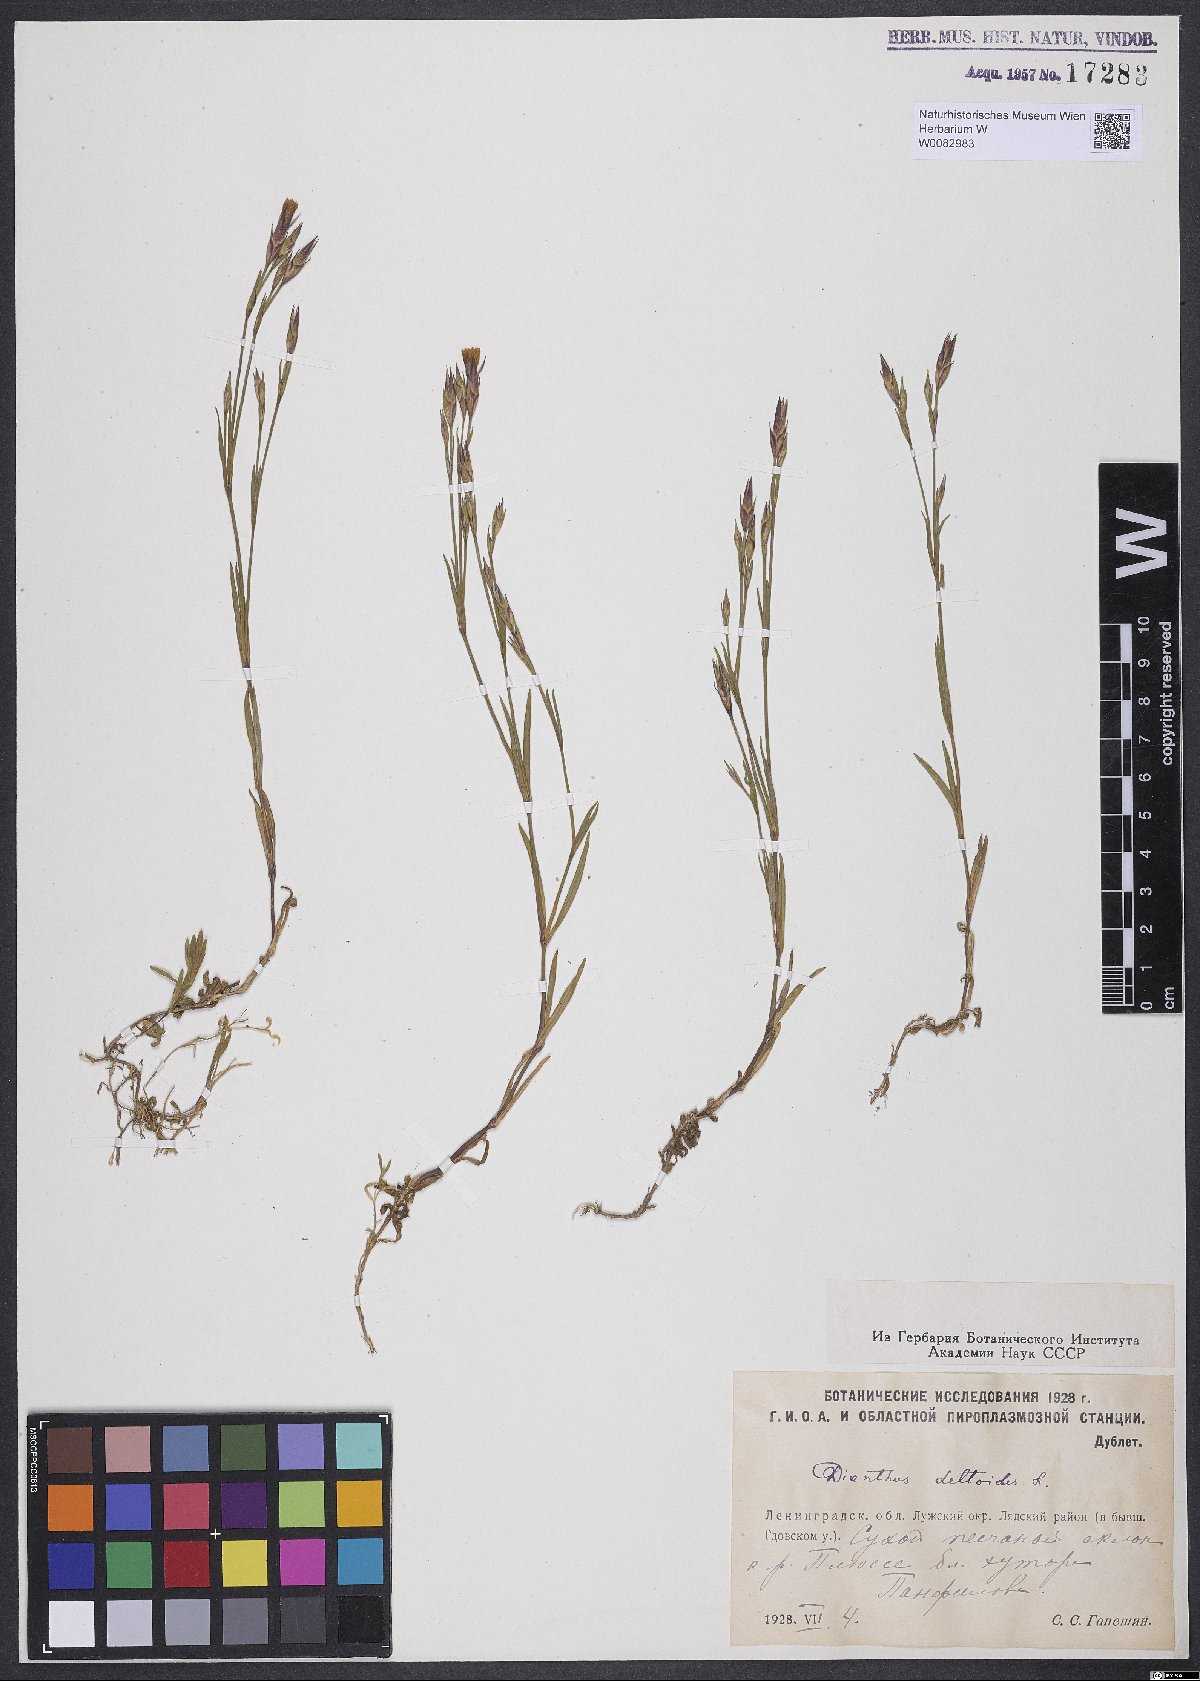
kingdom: Plantae
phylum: Tracheophyta
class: Magnoliopsida
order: Caryophyllales
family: Caryophyllaceae
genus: Dianthus
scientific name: Dianthus deltoides
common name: Maiden pink
